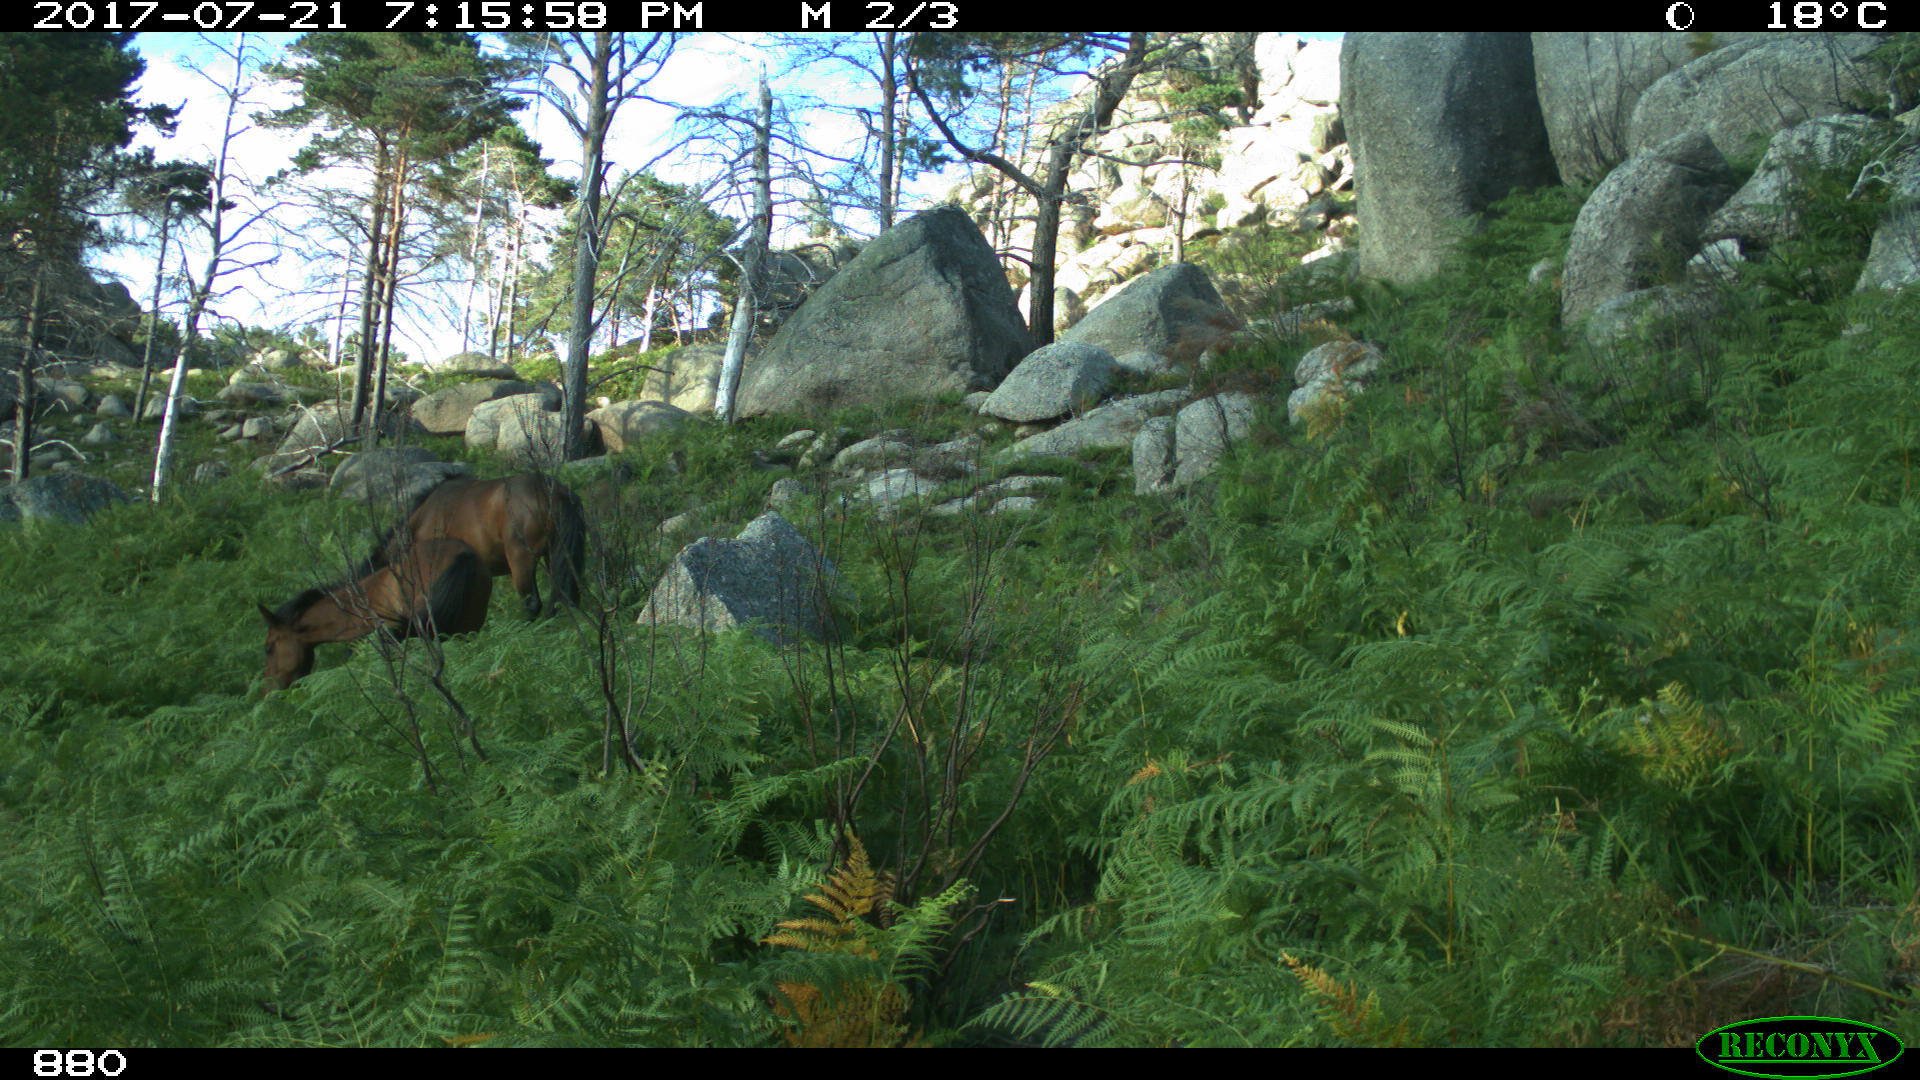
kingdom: Animalia
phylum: Chordata
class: Mammalia
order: Perissodactyla
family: Equidae
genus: Equus
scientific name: Equus caballus
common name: Horse
